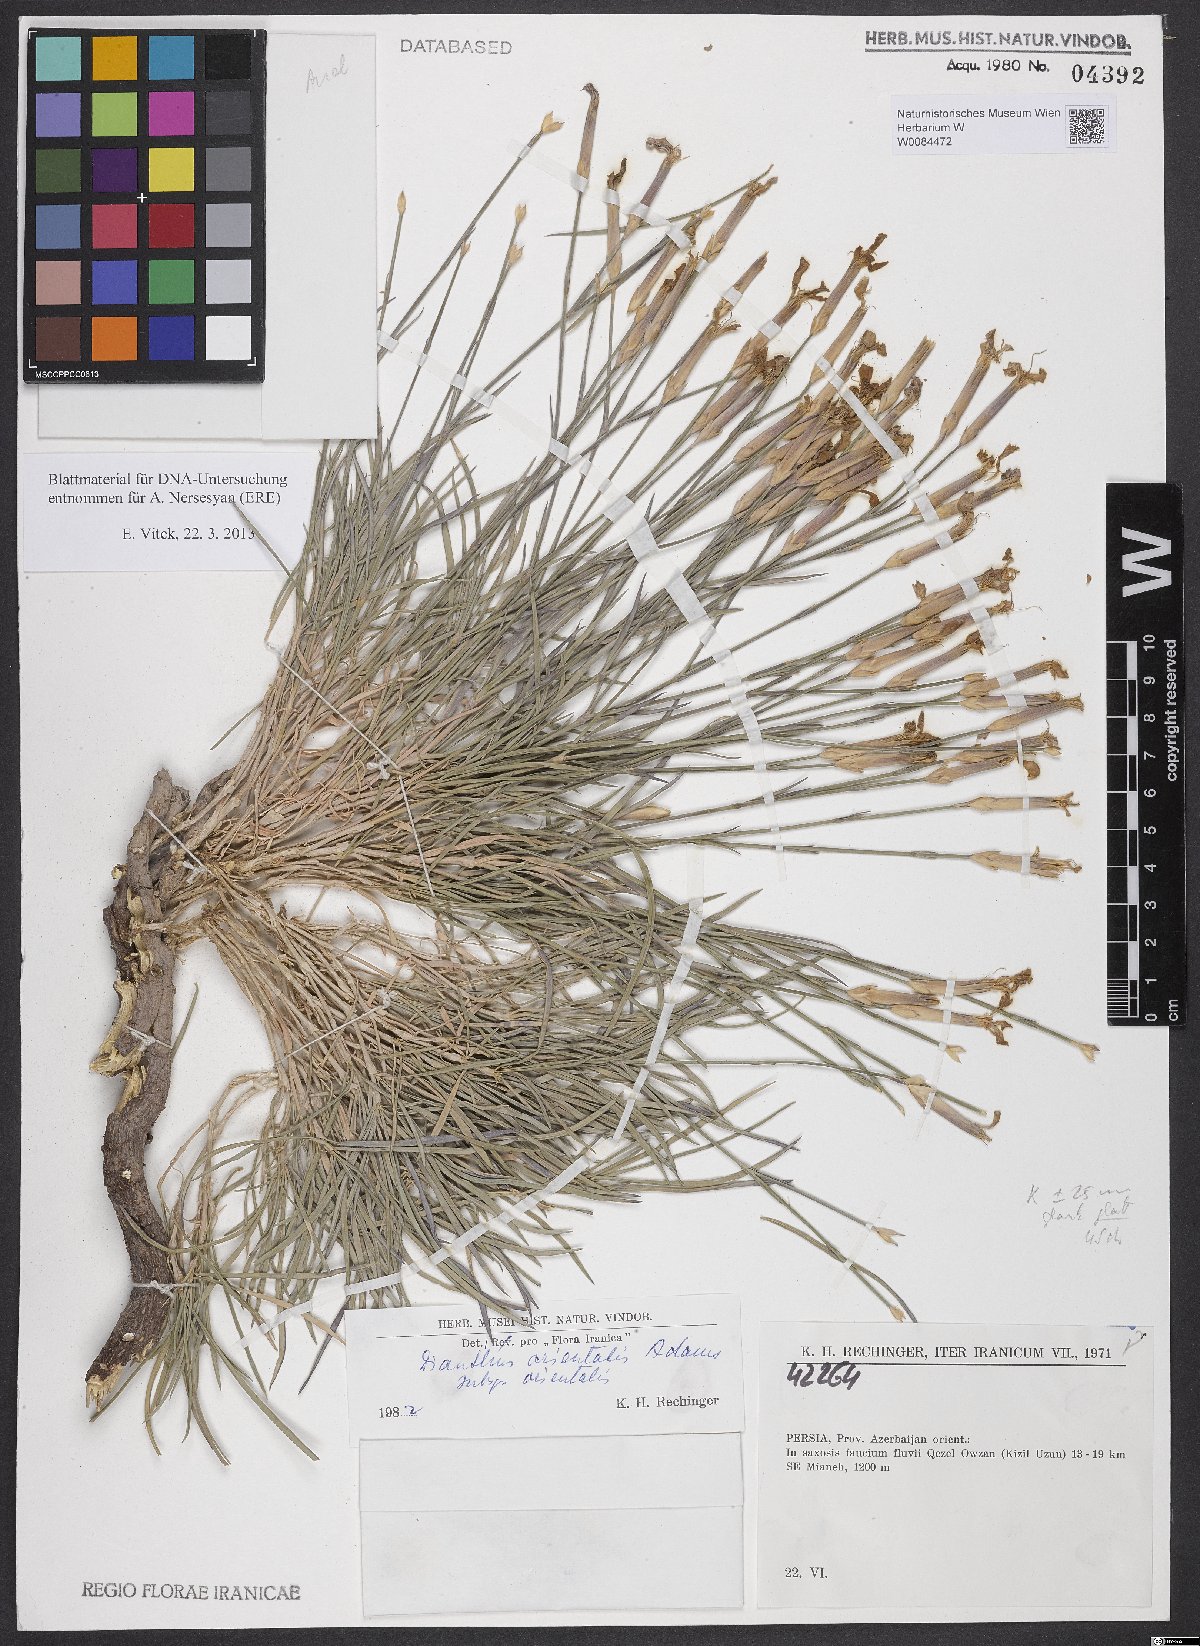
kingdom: Plantae
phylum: Tracheophyta
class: Magnoliopsida
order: Caryophyllales
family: Caryophyllaceae
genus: Dianthus
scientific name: Dianthus orientalis
